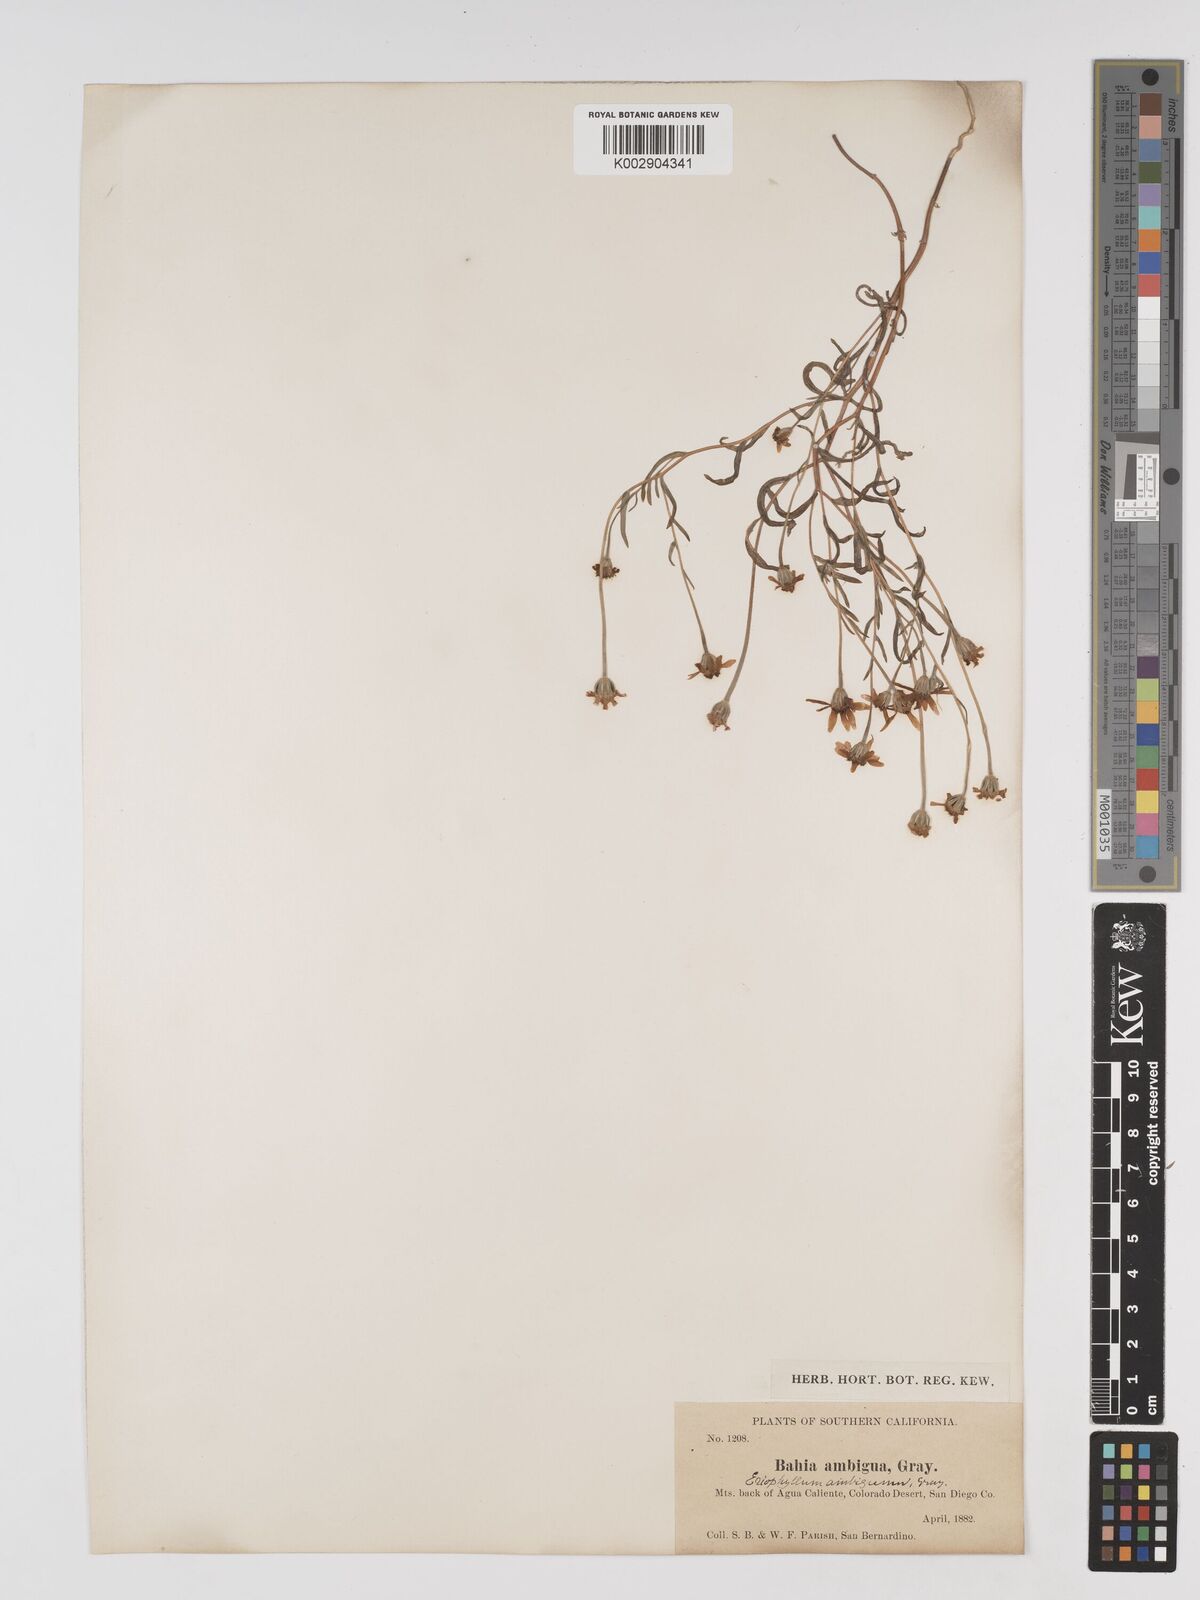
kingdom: Plantae
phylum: Tracheophyta
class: Magnoliopsida
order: Asterales
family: Asteraceae
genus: Eriophyllum
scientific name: Eriophyllum ambiguum
